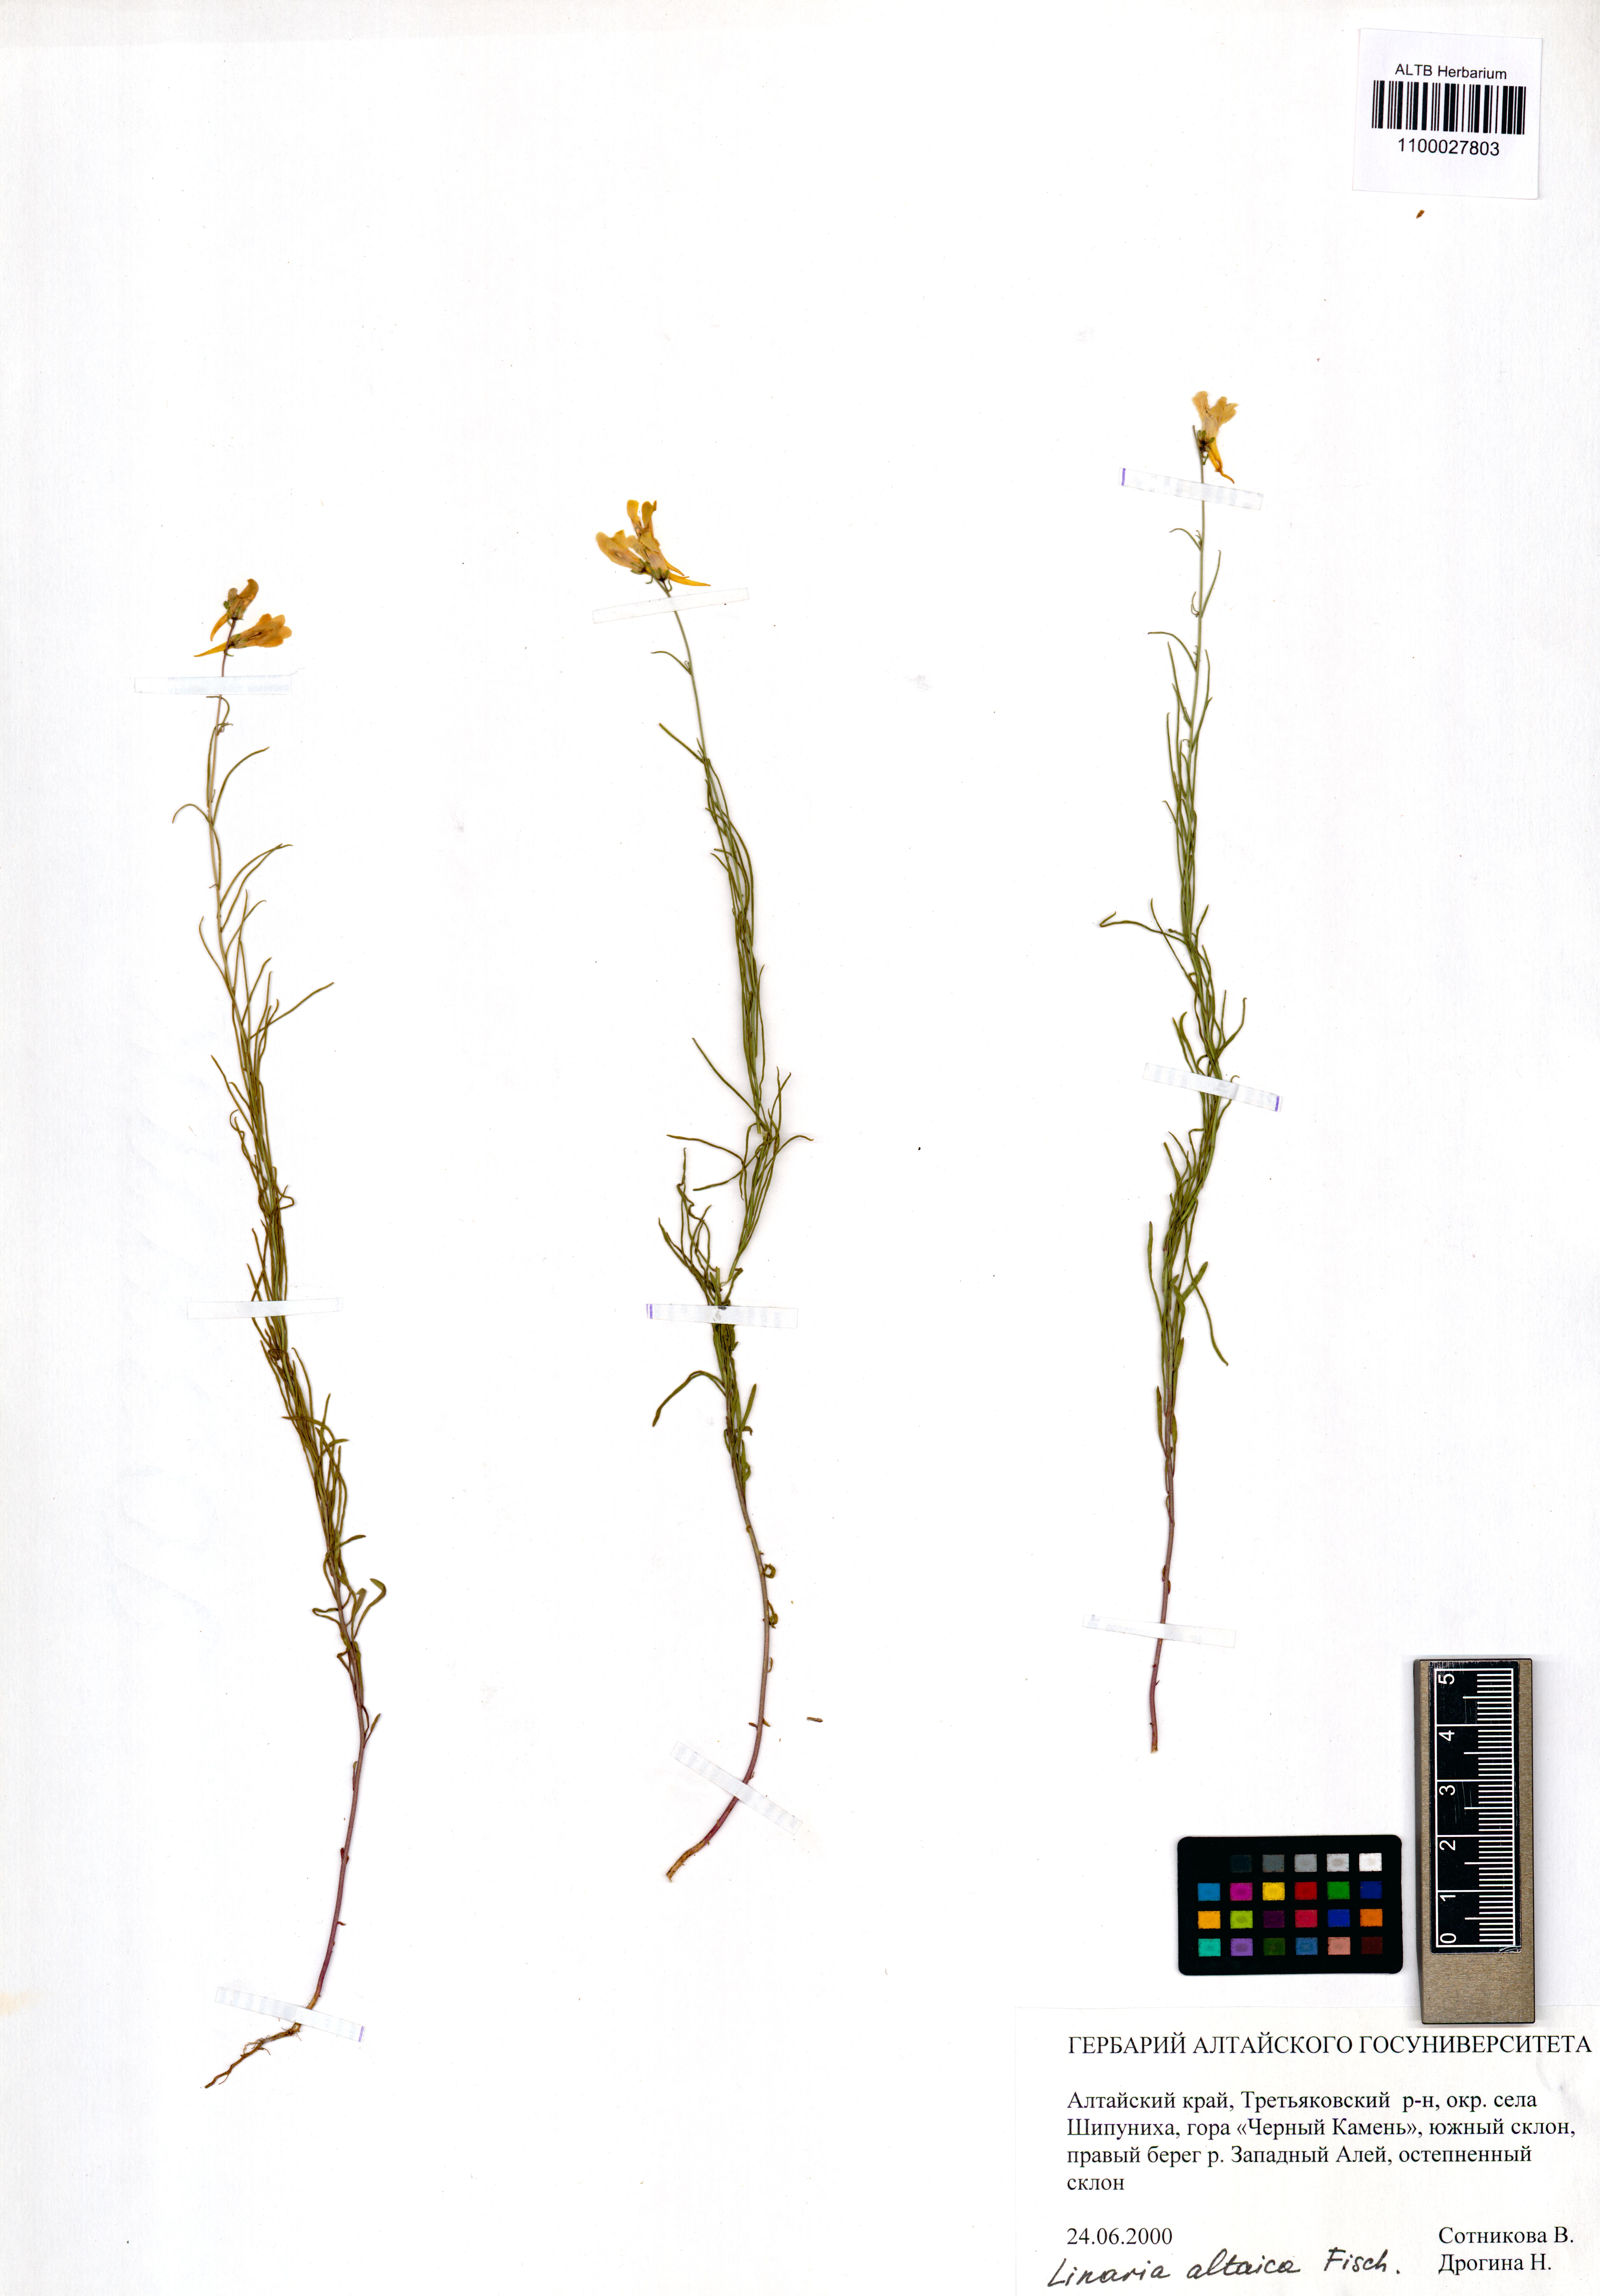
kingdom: Plantae
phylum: Tracheophyta
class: Magnoliopsida
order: Lamiales
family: Plantaginaceae
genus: Linaria
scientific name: Linaria altaica
